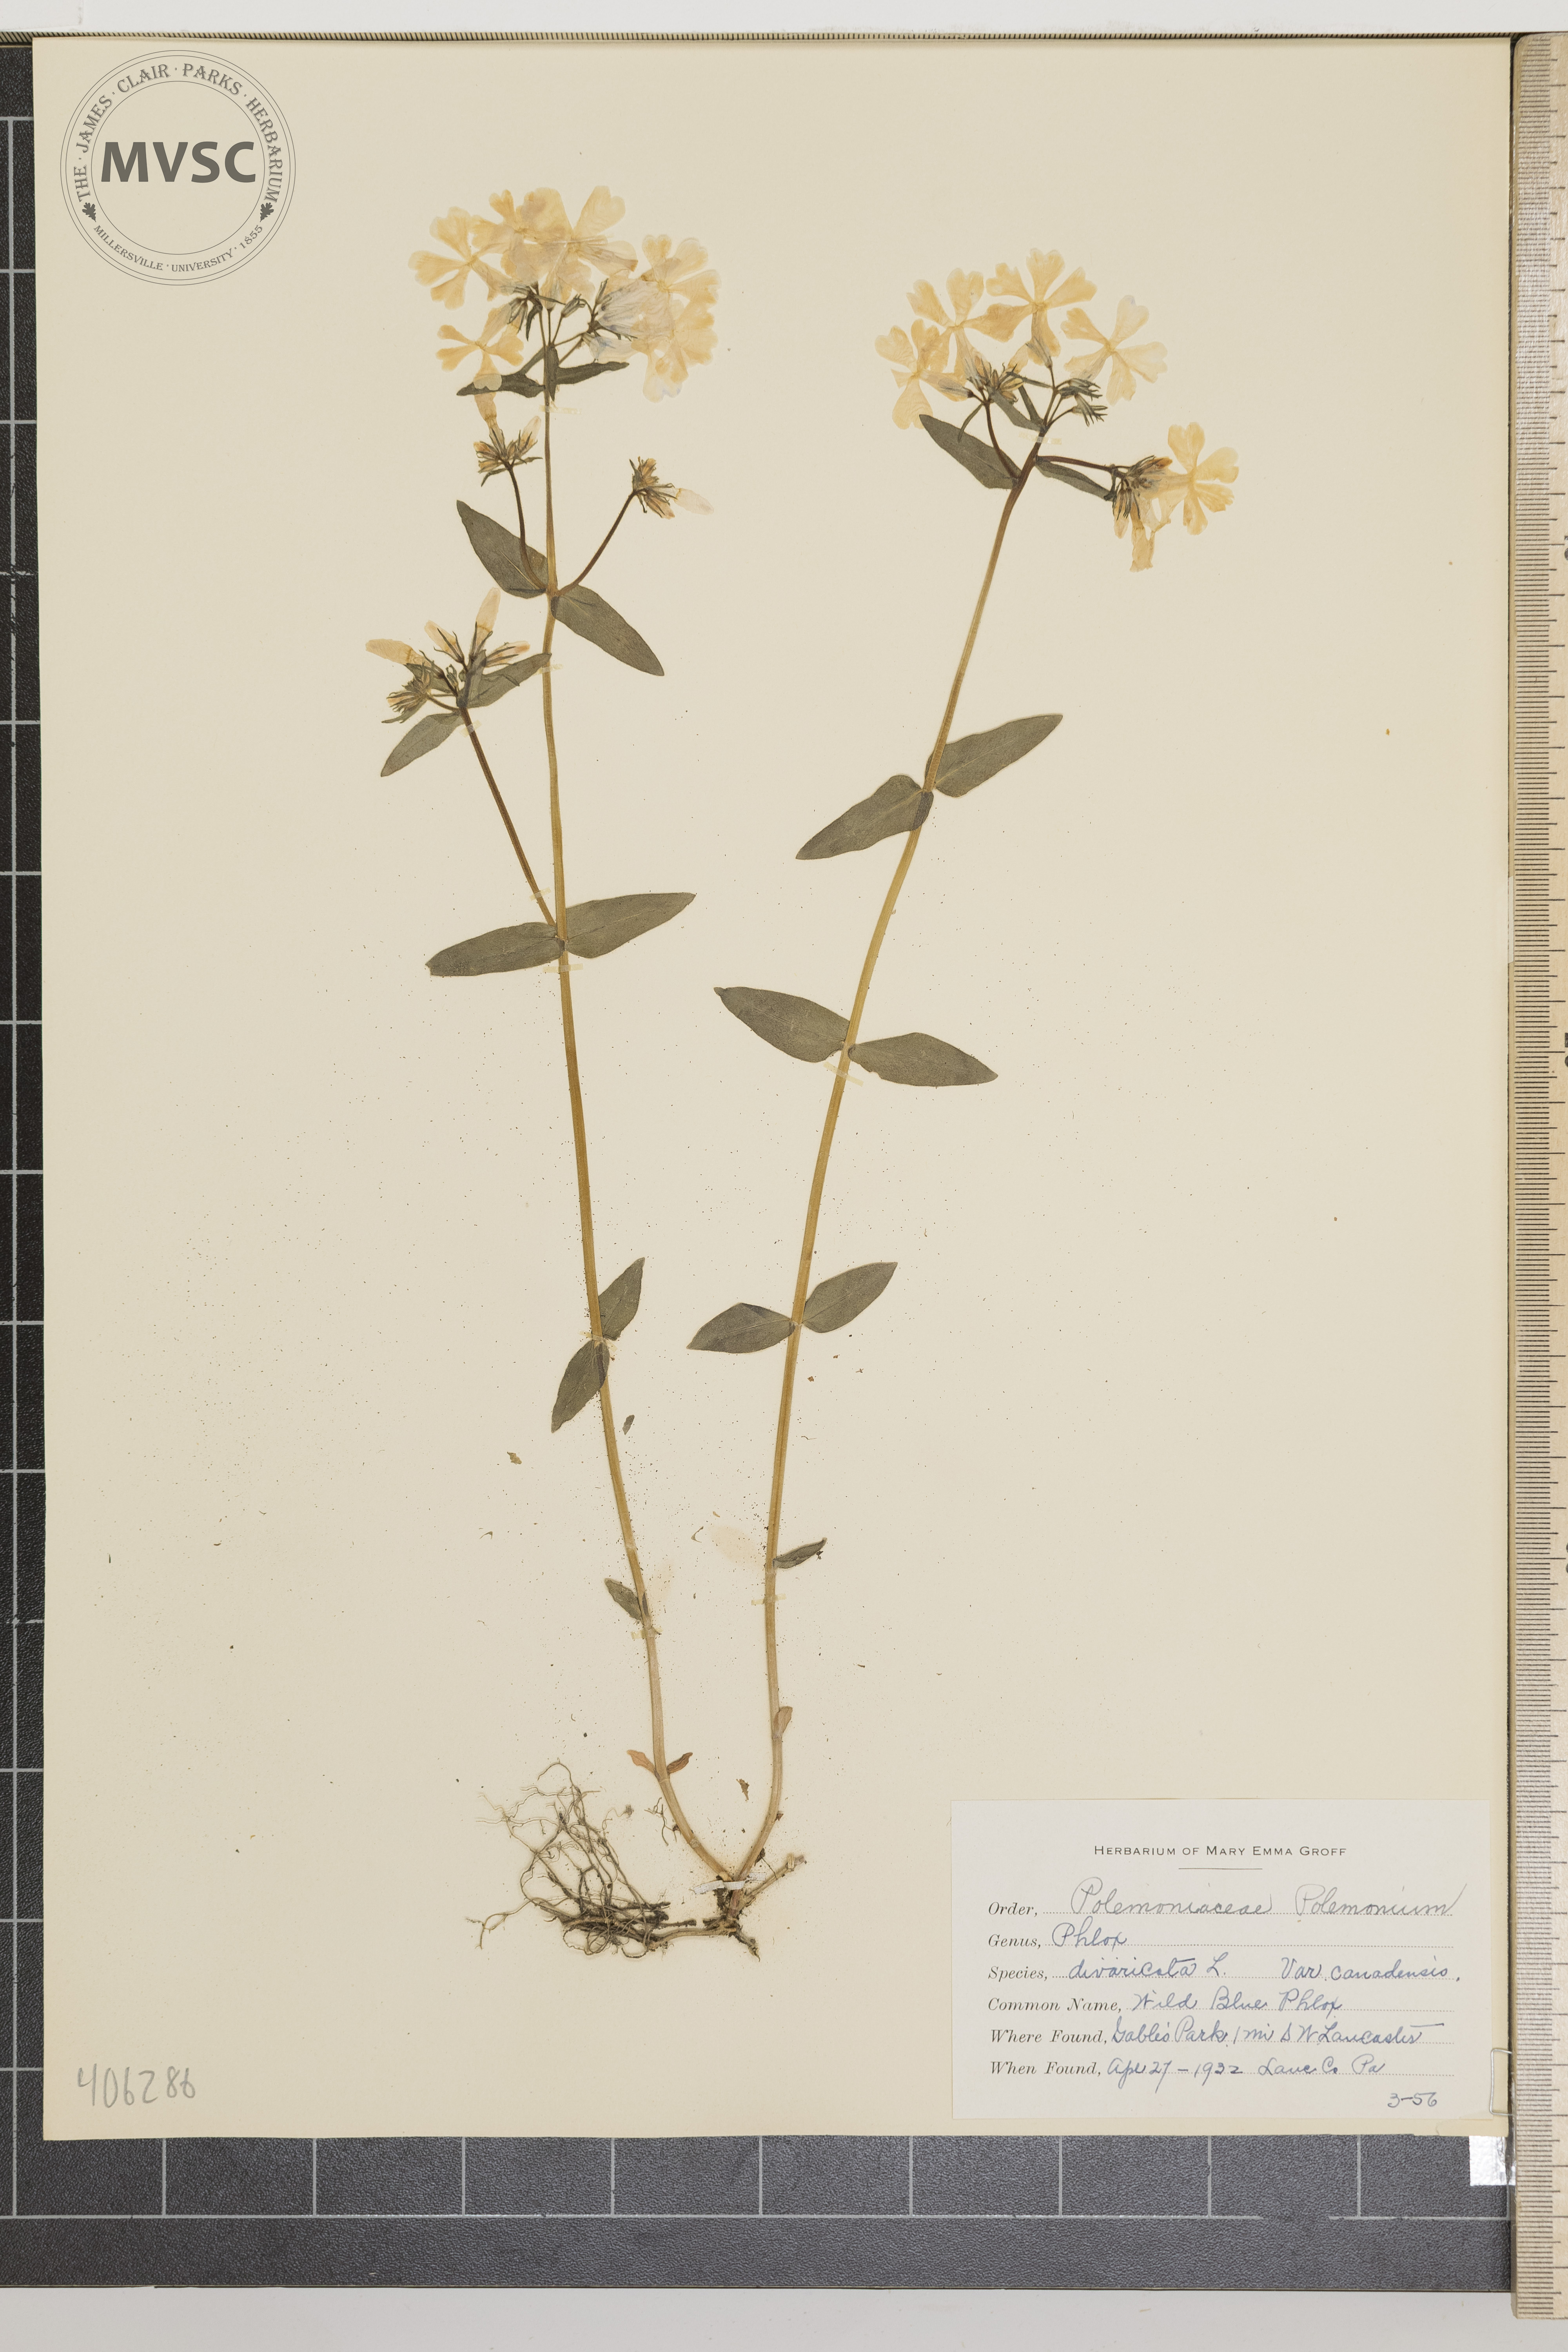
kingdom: Plantae
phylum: Tracheophyta
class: Magnoliopsida
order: Ericales
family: Polemoniaceae
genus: Phlox
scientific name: Phlox divaricata
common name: wild blue phlox
